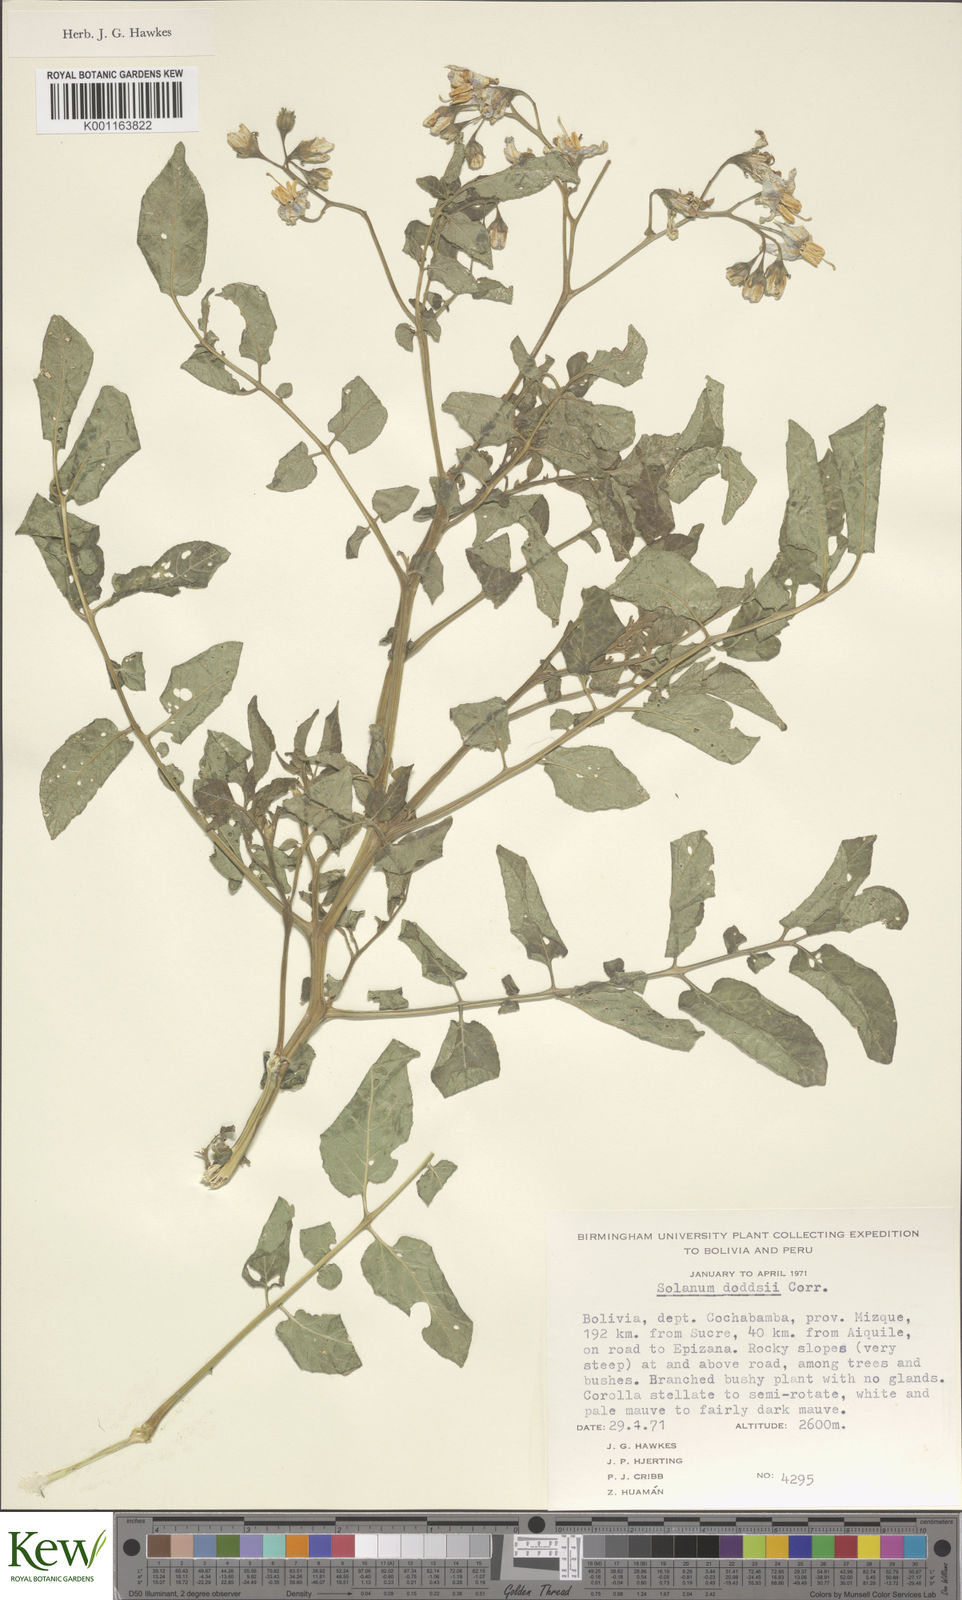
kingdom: Plantae
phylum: Tracheophyta
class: Magnoliopsida
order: Solanales
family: Solanaceae
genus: Solanum
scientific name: Solanum doddsii
